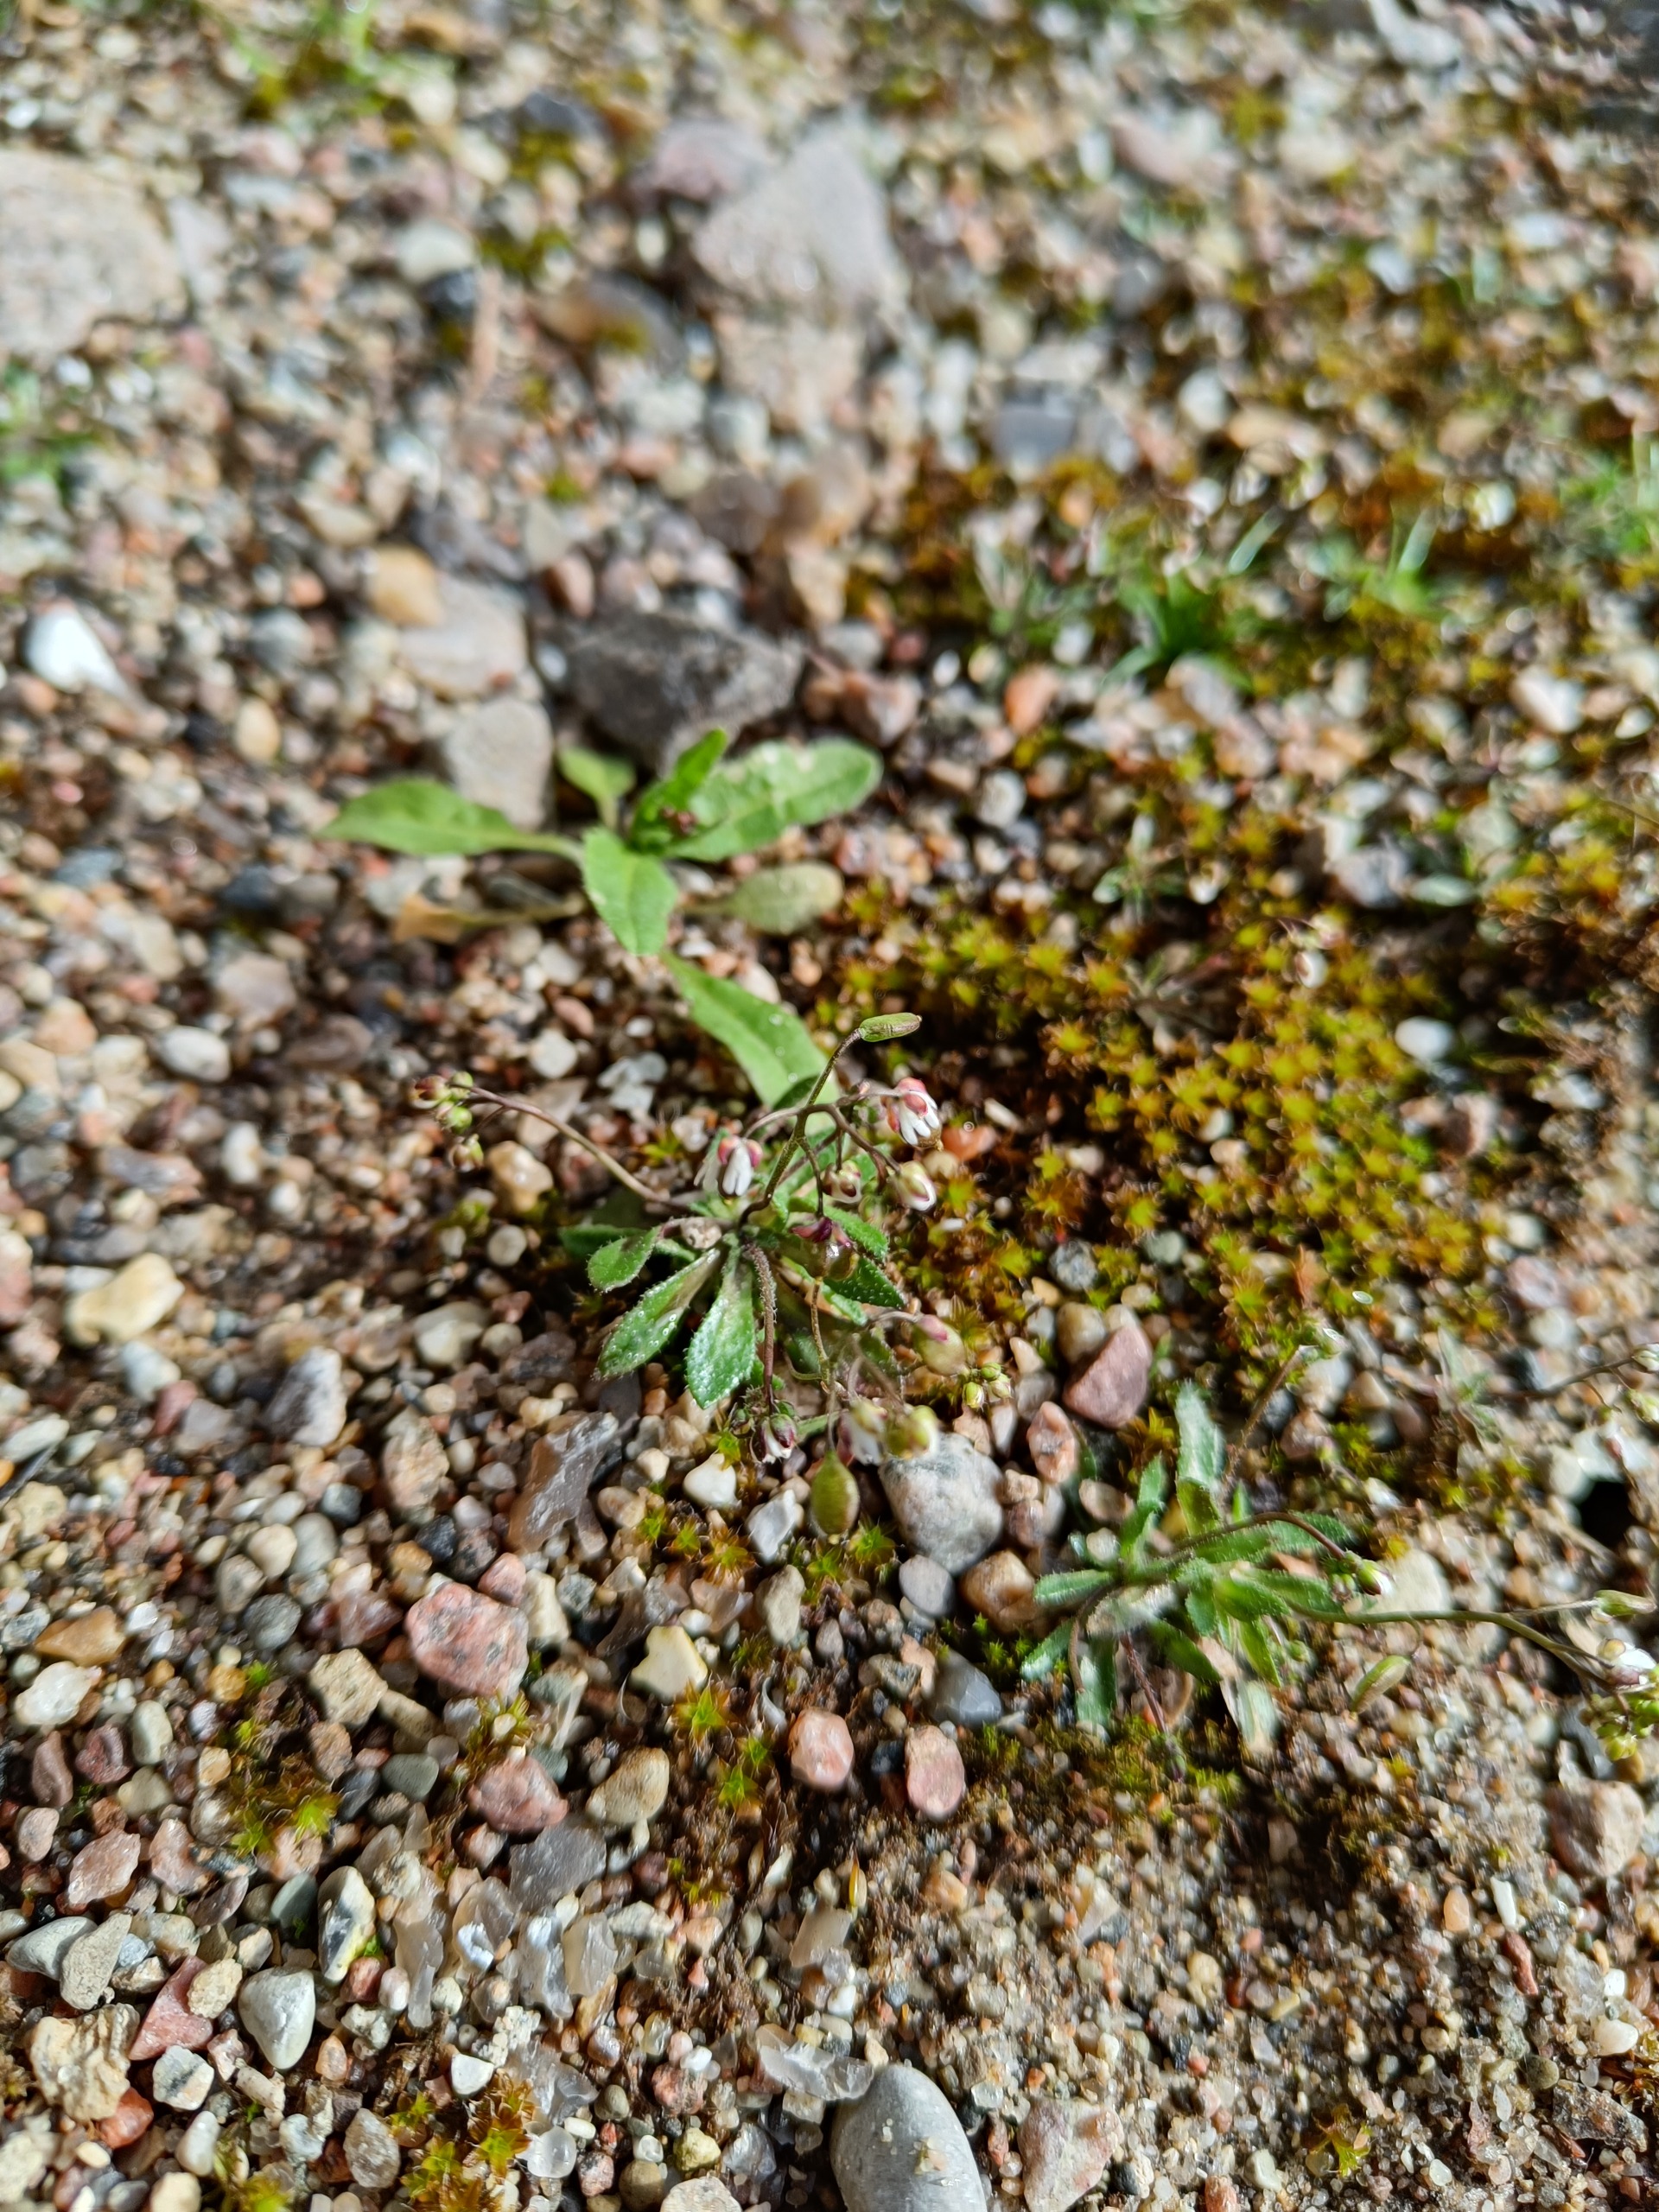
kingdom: Plantae
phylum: Tracheophyta
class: Magnoliopsida
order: Brassicales
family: Brassicaceae
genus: Draba
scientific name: Draba verna
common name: Vår-gæslingeblomst
